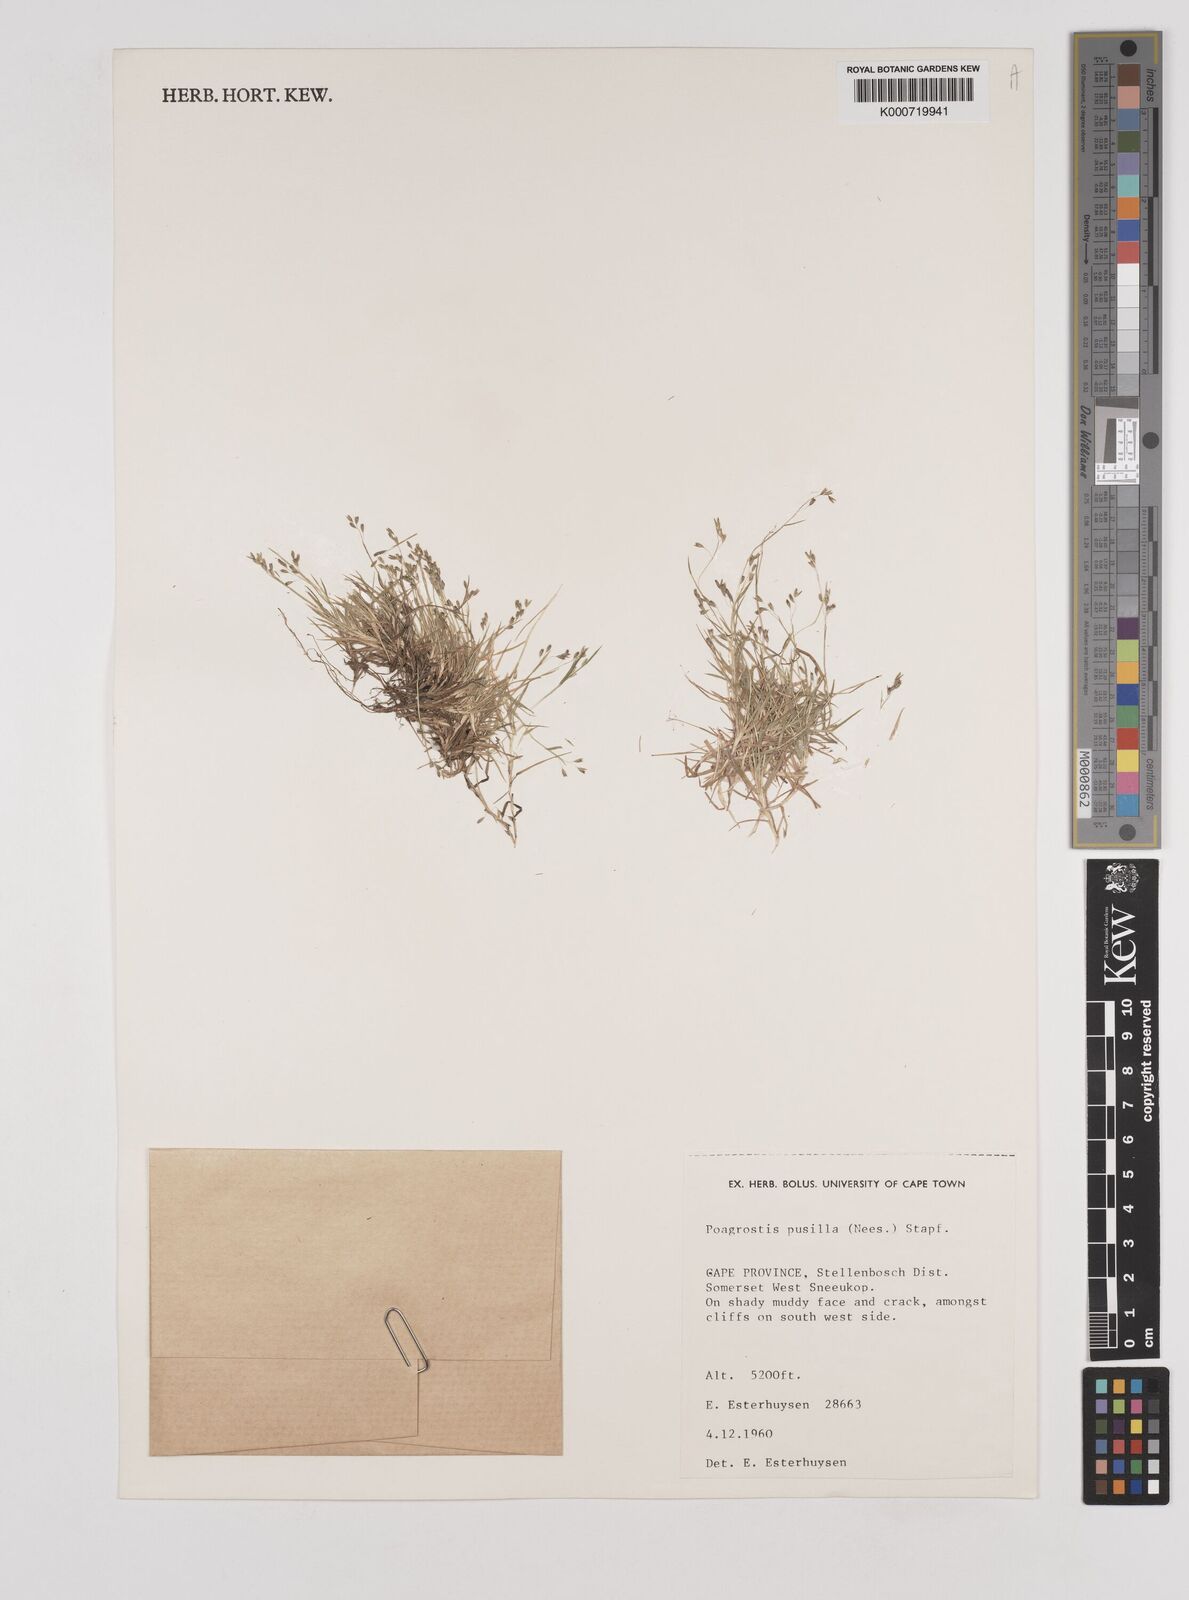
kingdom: Plantae
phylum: Tracheophyta
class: Liliopsida
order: Poales
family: Poaceae
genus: Pentameris
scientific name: Pentameris pusilla
